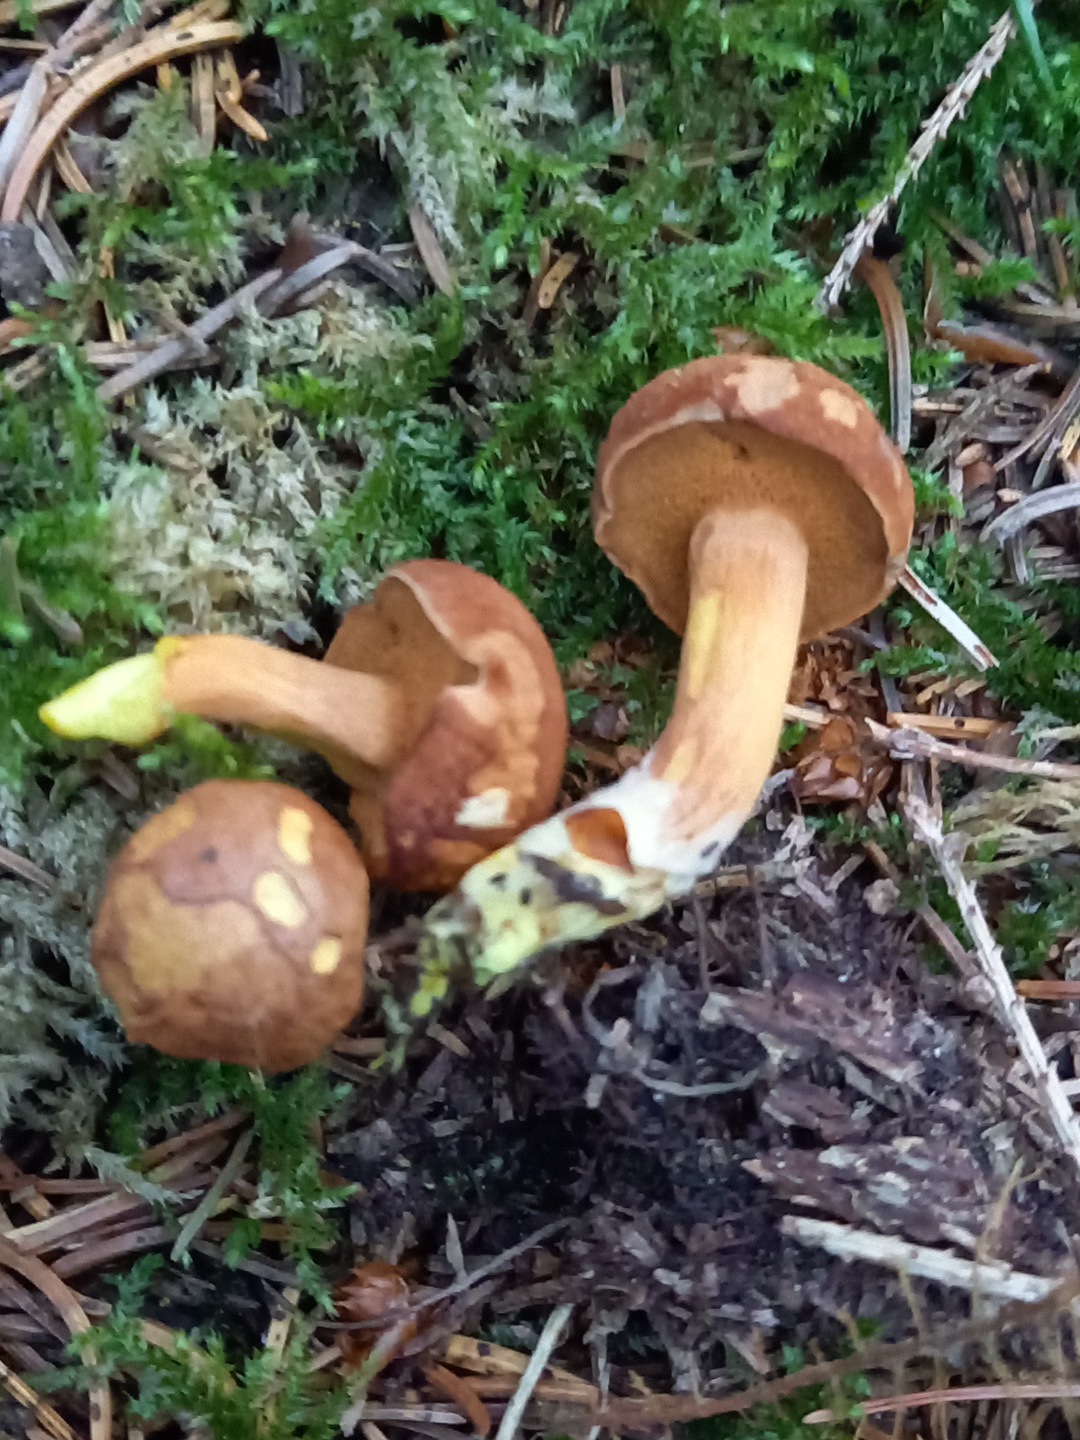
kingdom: Fungi
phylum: Basidiomycota
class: Agaricomycetes
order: Boletales
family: Boletaceae
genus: Chalciporus
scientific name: Chalciporus piperatus
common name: peberrørhat
